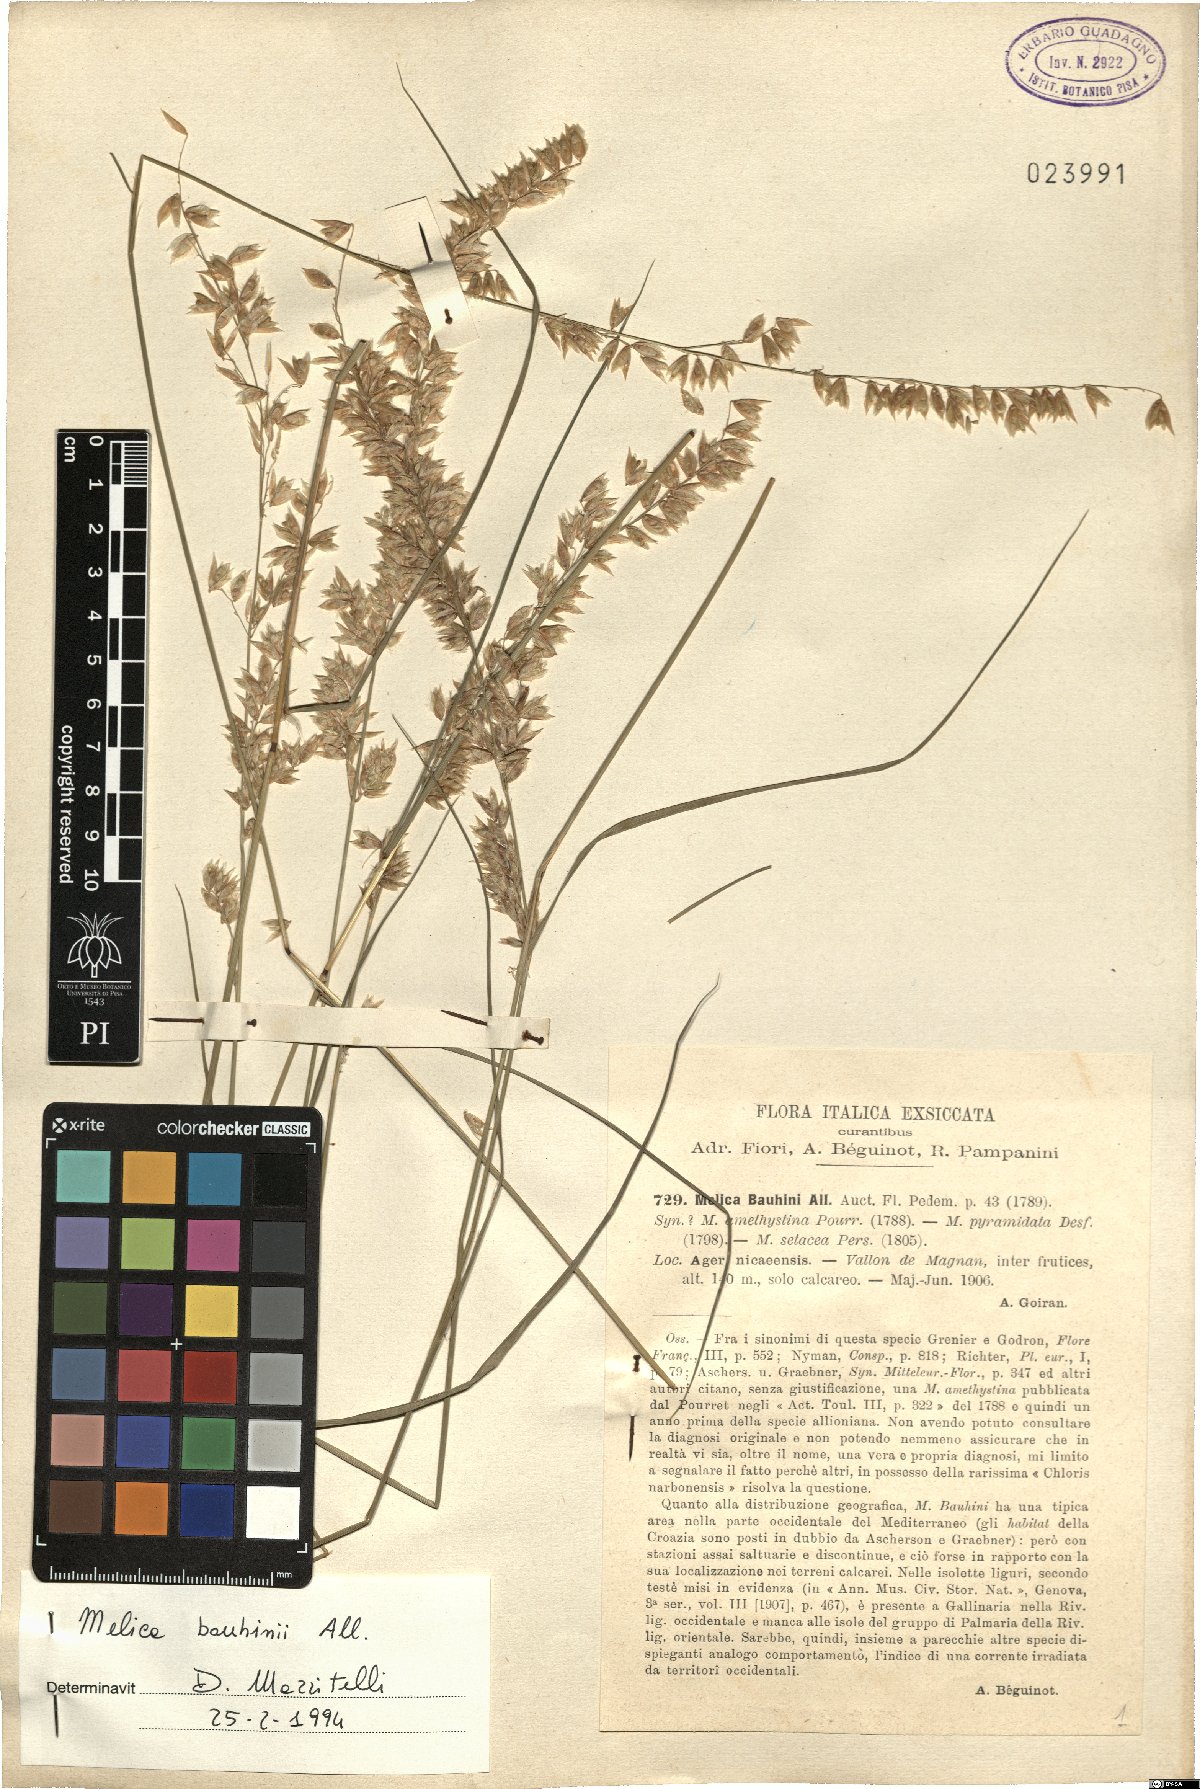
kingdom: Plantae
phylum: Tracheophyta
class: Liliopsida
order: Poales
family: Poaceae
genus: Melica
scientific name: Melica amethystina
